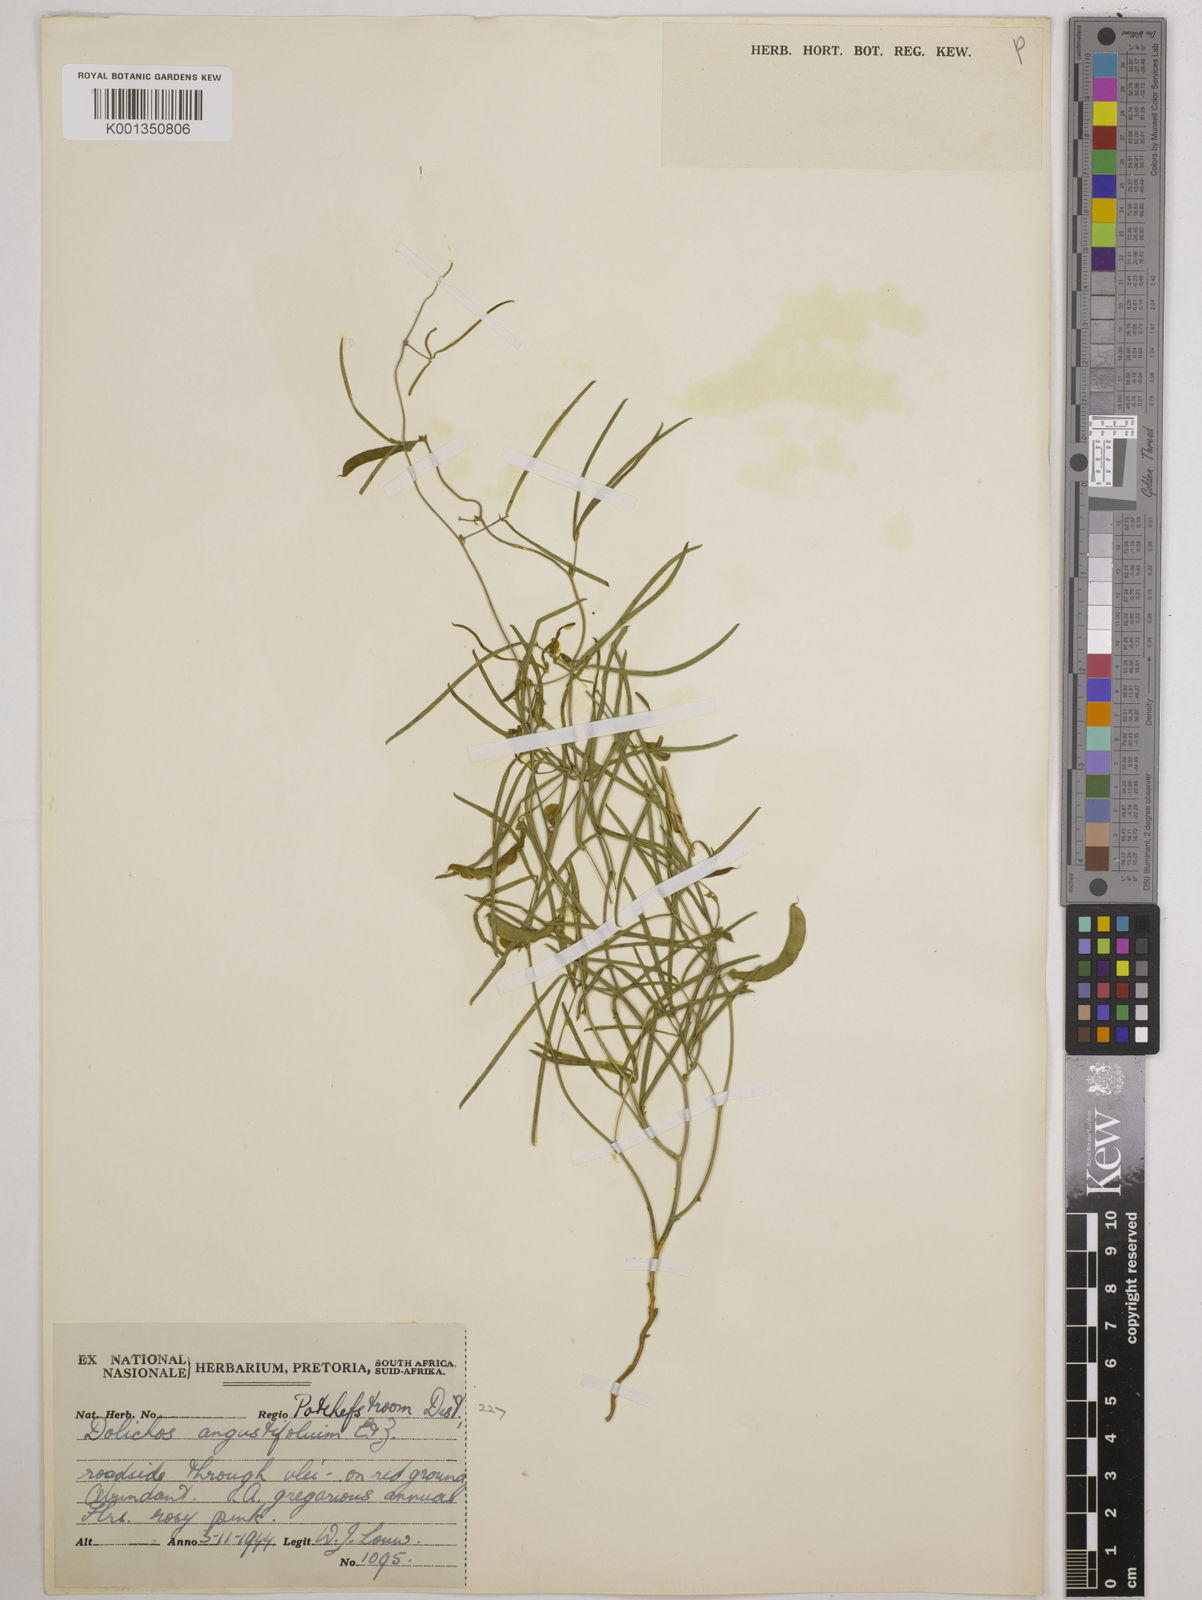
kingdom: Plantae
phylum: Tracheophyta
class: Magnoliopsida
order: Fabales
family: Fabaceae
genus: Dolichos
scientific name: Dolichos
